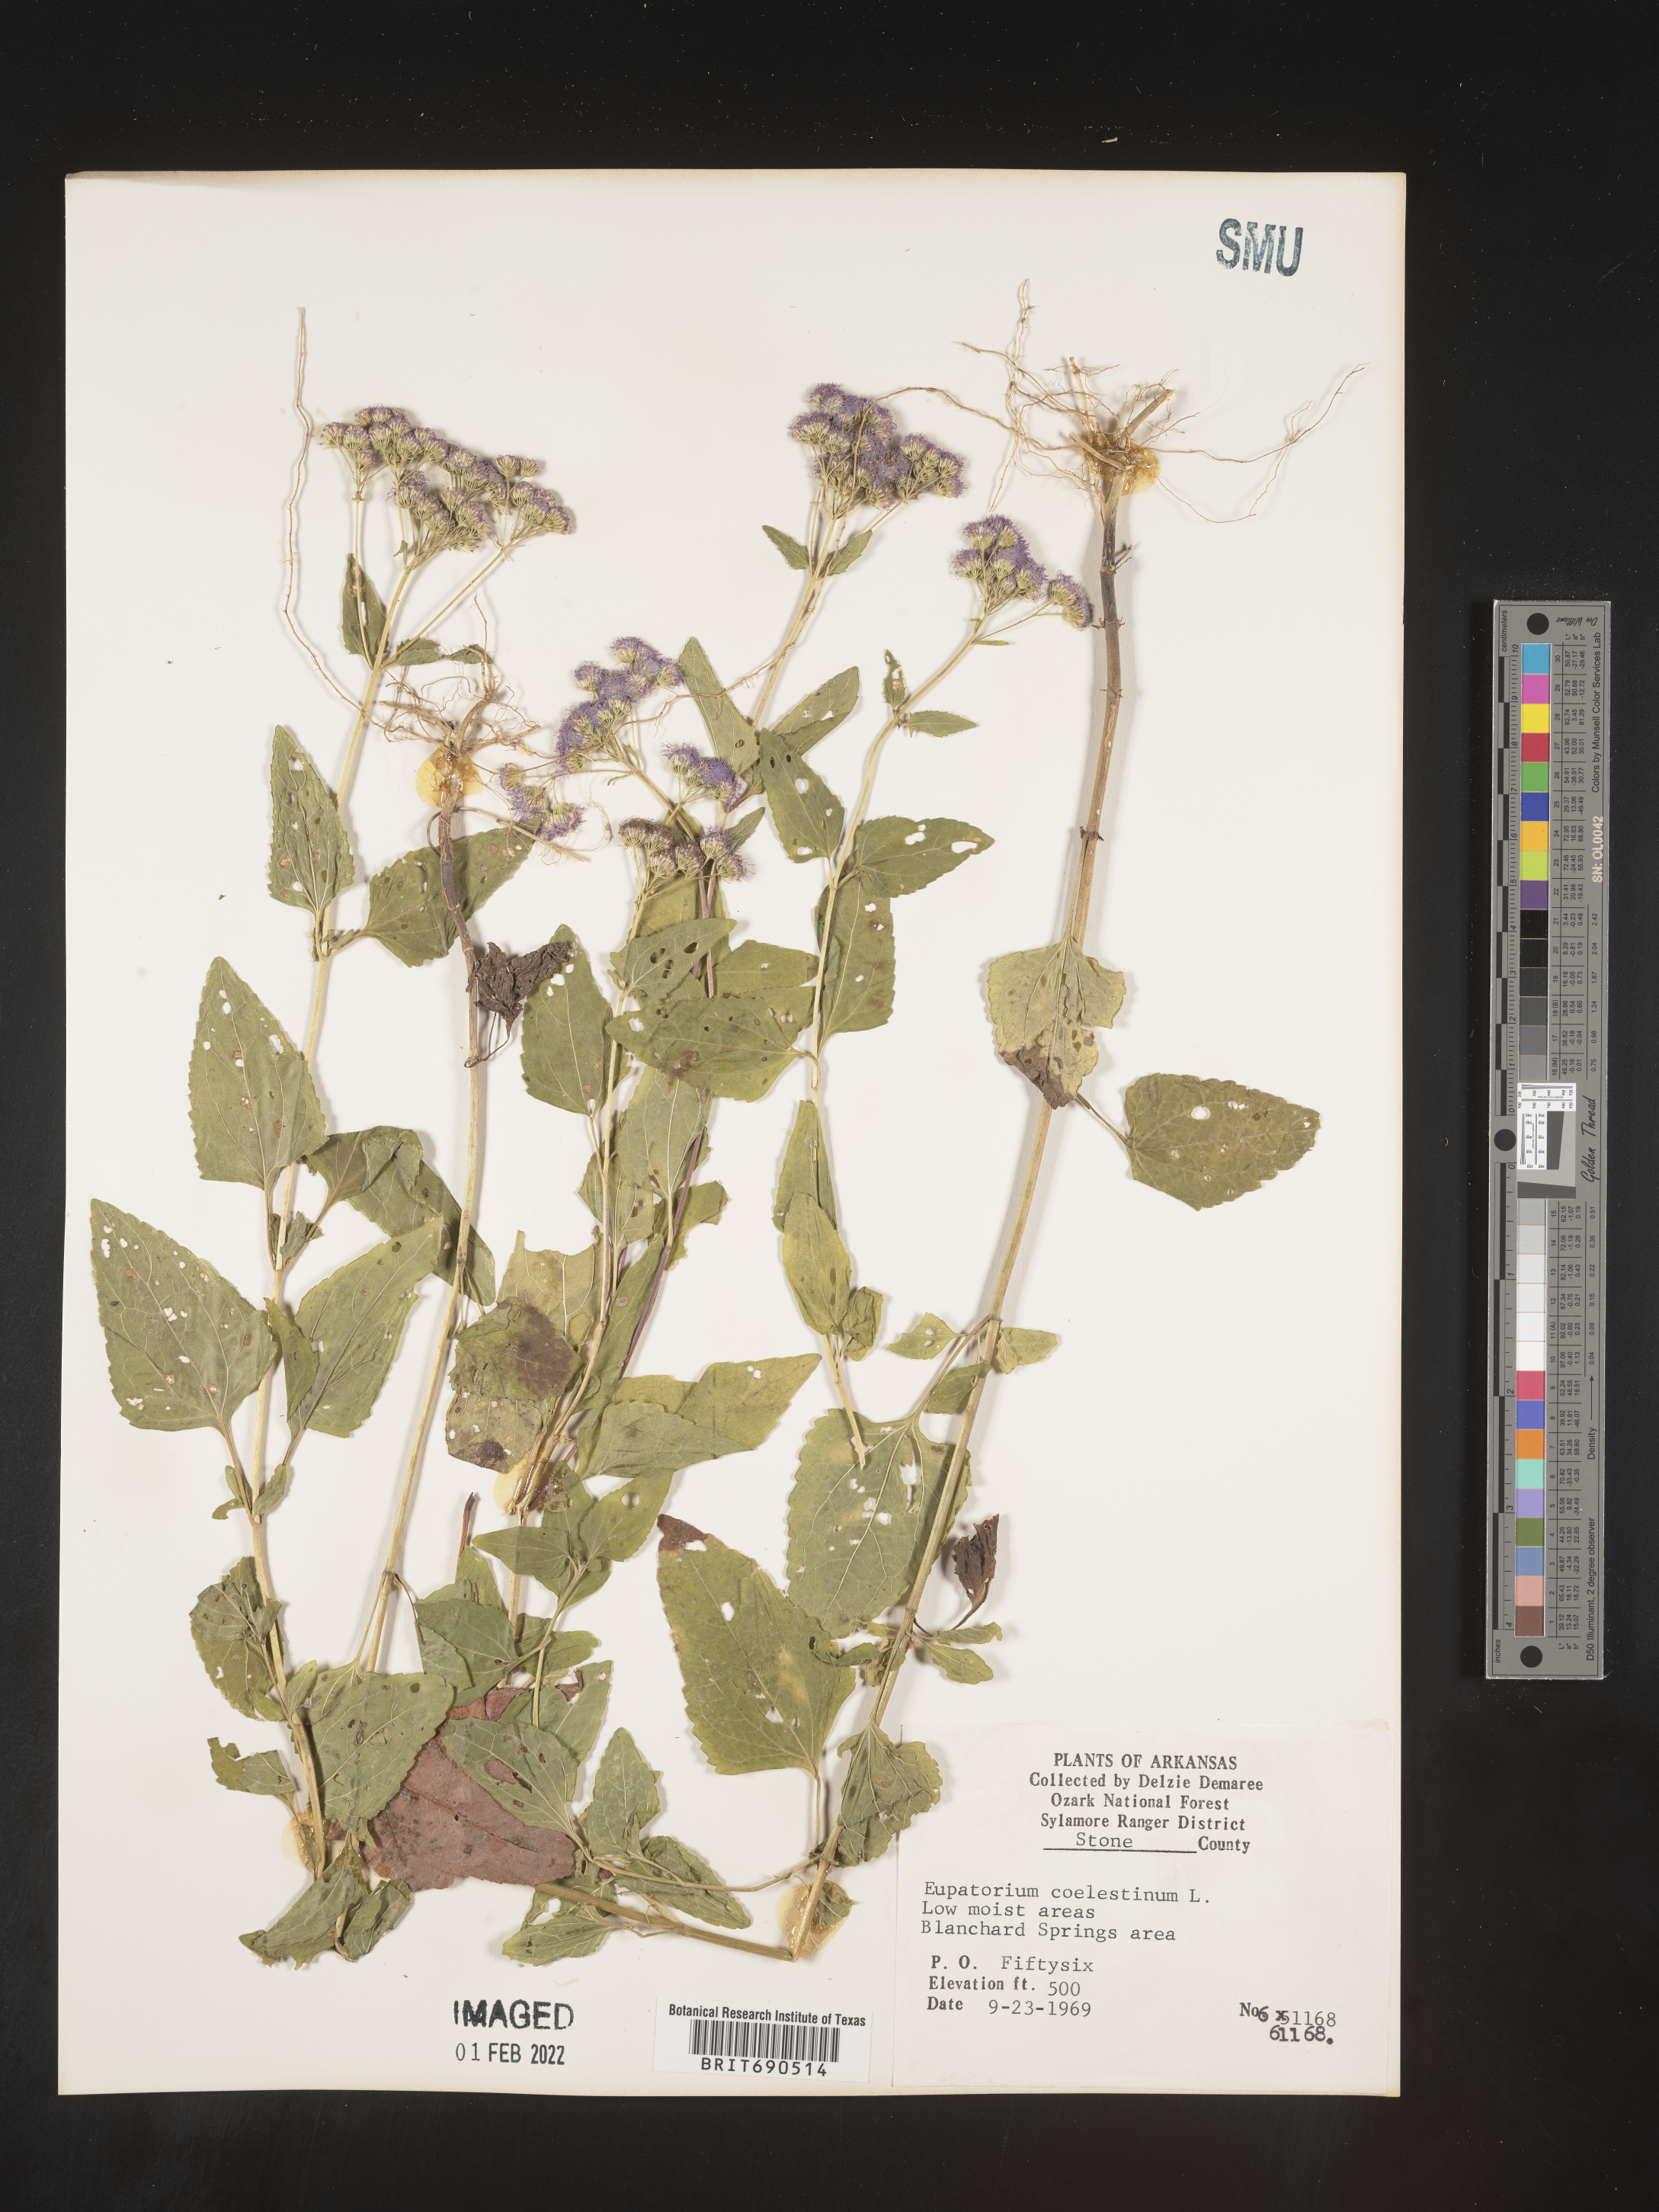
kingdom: Plantae
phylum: Tracheophyta
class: Magnoliopsida
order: Asterales
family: Asteraceae
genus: Conoclinium
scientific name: Conoclinium coelestinum
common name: Blue mistflower
